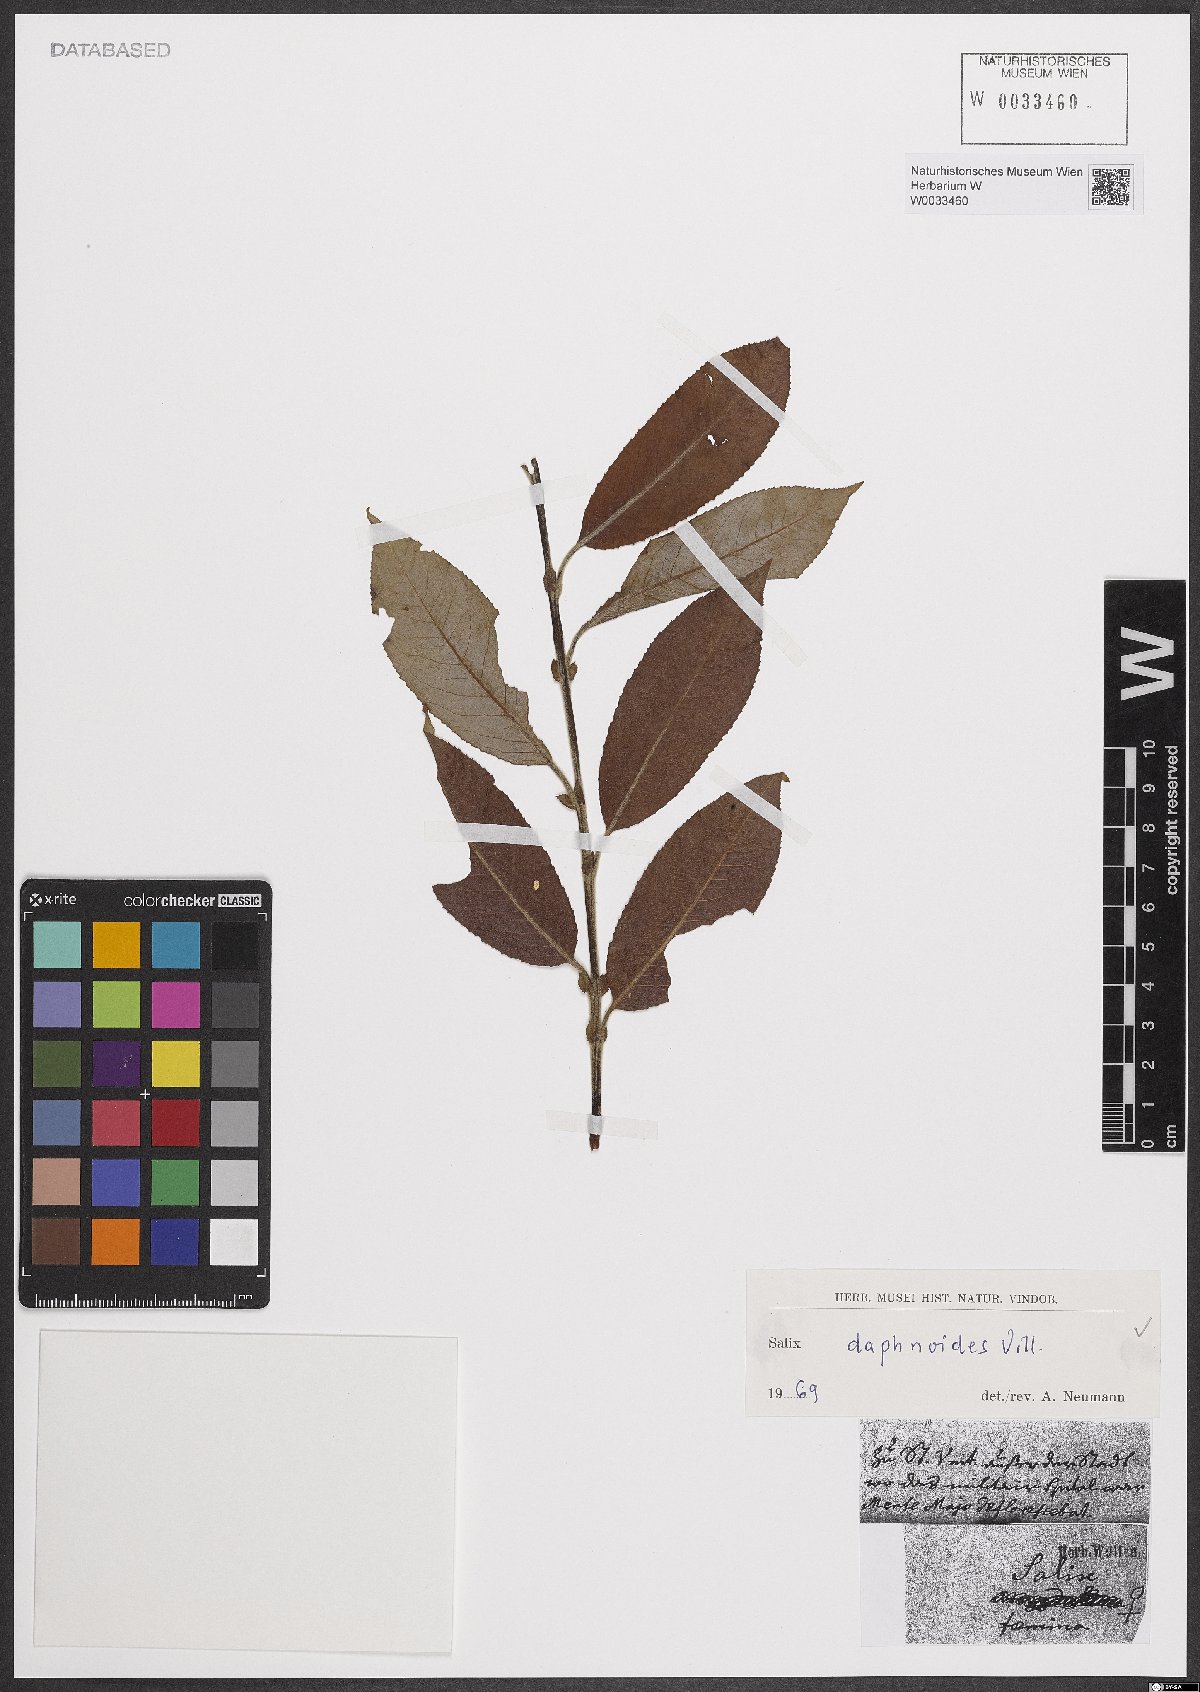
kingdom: Plantae
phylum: Tracheophyta
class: Magnoliopsida
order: Malpighiales
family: Salicaceae
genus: Salix
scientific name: Salix daphnoides
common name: European violet-willow
